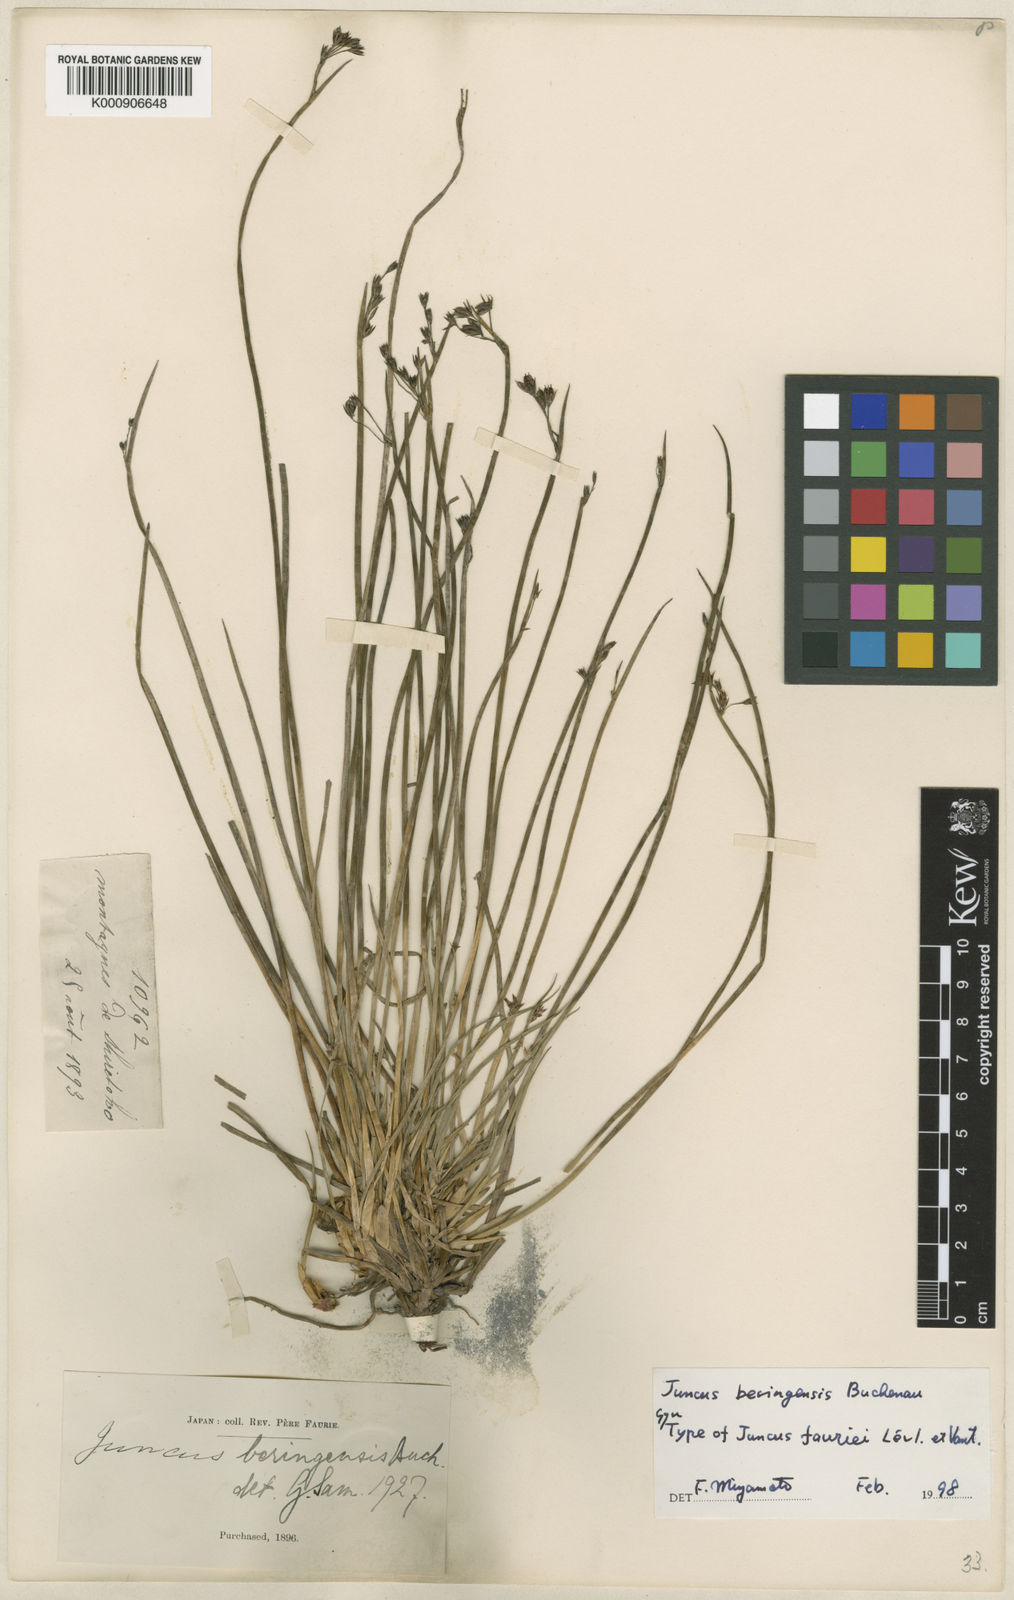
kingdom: Plantae
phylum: Tracheophyta
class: Liliopsida
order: Poales
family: Juncaceae
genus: Juncus
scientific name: Juncus beringensis
